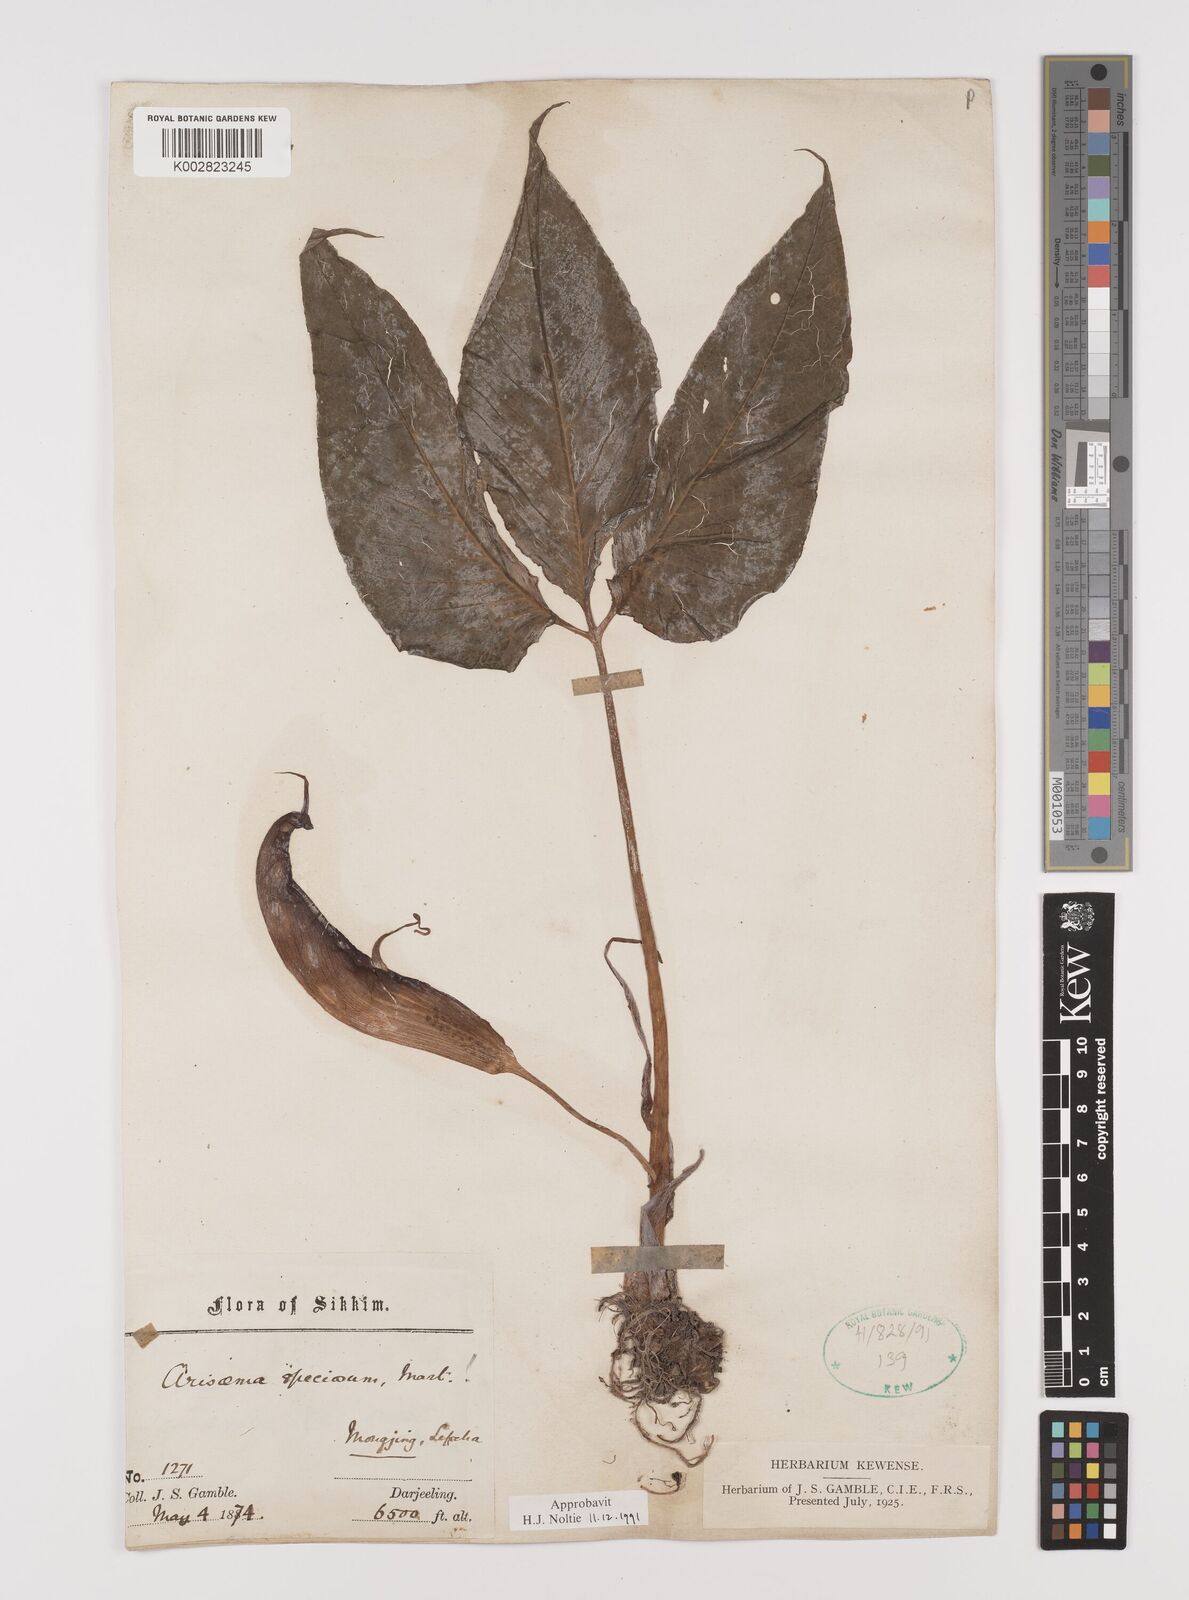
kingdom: Plantae
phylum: Tracheophyta
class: Liliopsida
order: Alismatales
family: Araceae
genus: Arisaema
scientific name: Arisaema speciosum
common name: Showy cobra-lily
